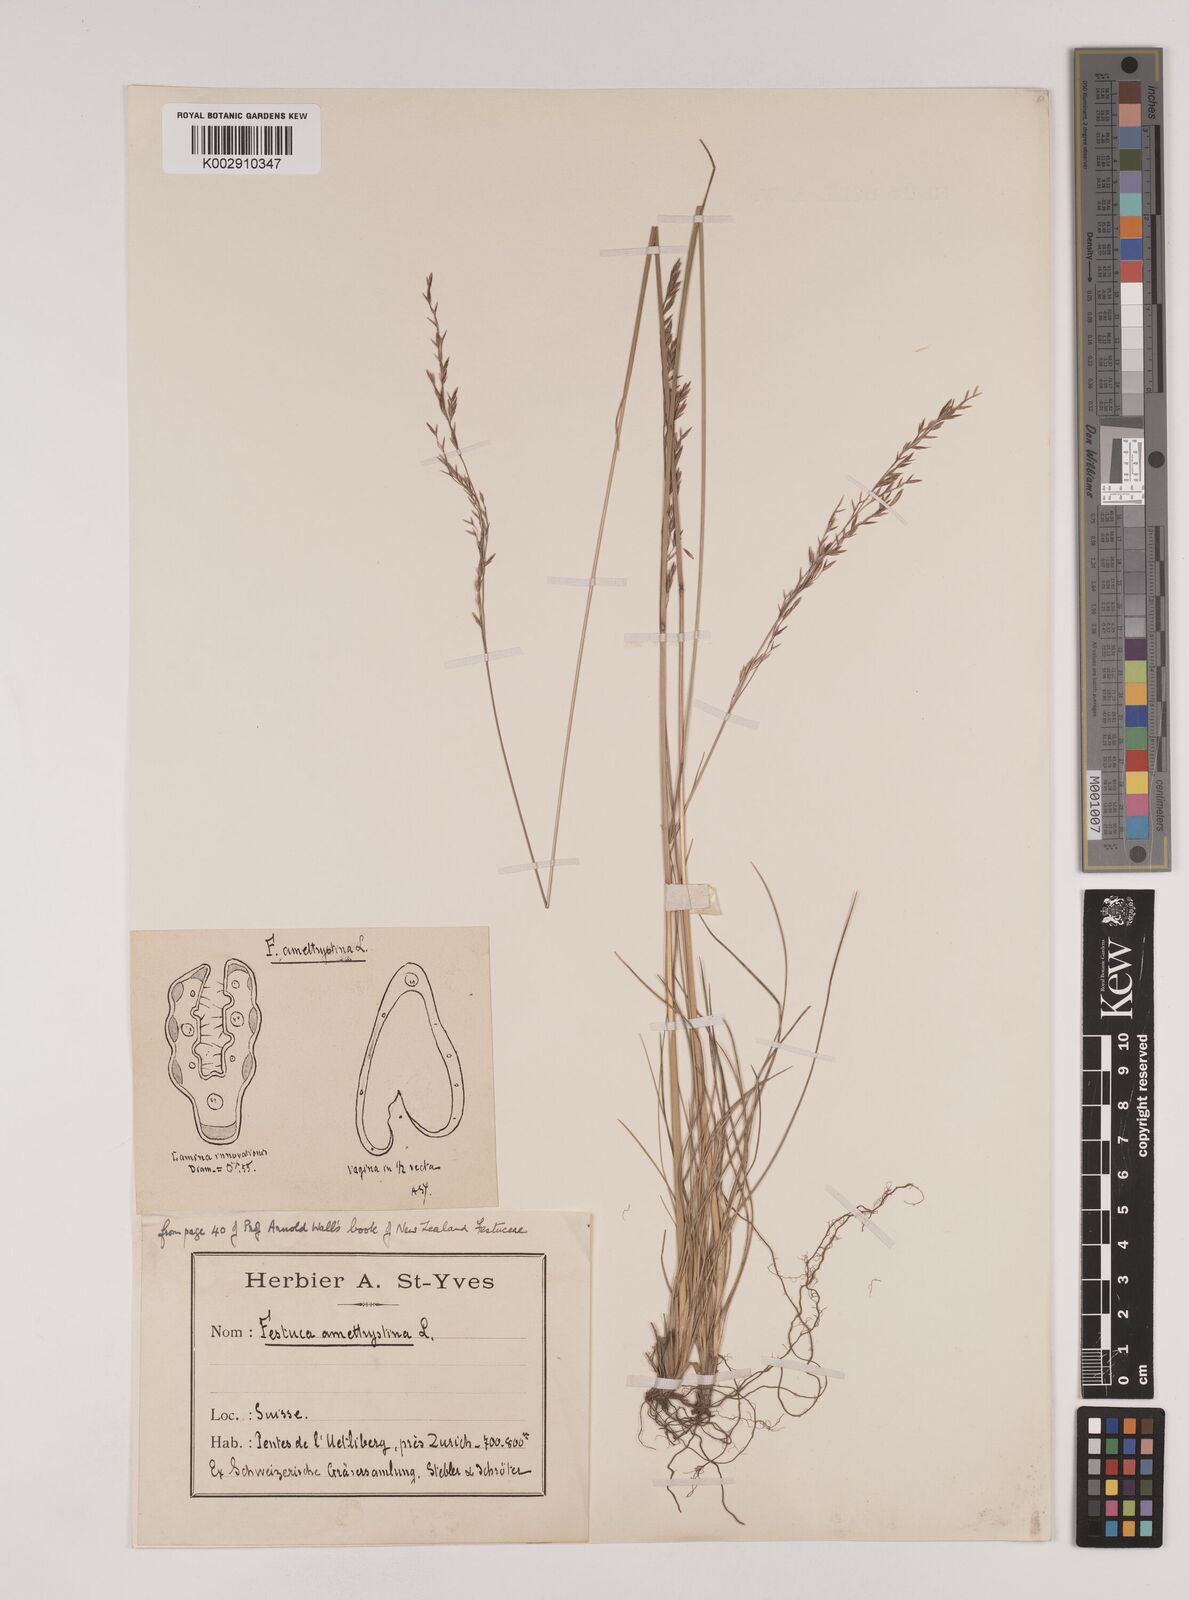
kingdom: Plantae
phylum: Tracheophyta
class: Liliopsida
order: Poales
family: Poaceae
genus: Festuca
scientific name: Festuca amethystina
